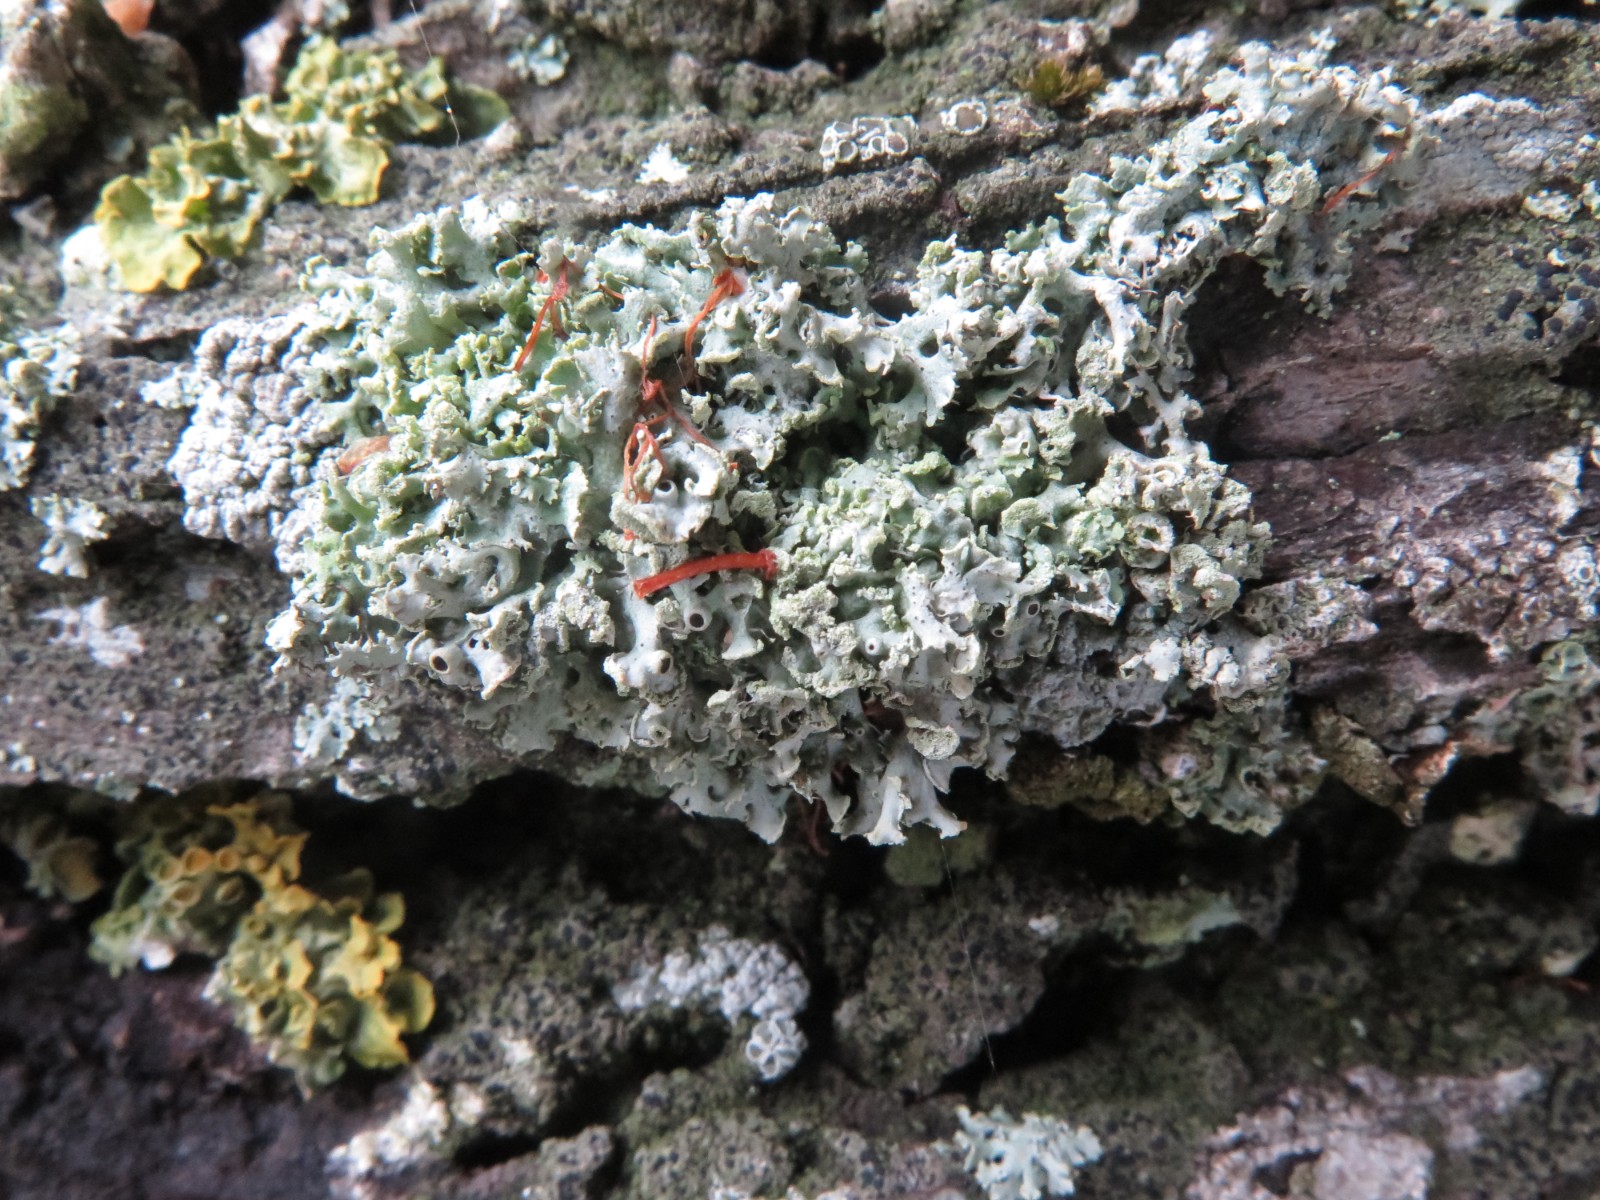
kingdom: Fungi
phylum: Ascomycota
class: Lecanoromycetes
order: Lecanorales
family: Parmeliaceae
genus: Hypogymnia
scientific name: Hypogymnia physodes
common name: almindelig kvistlav
